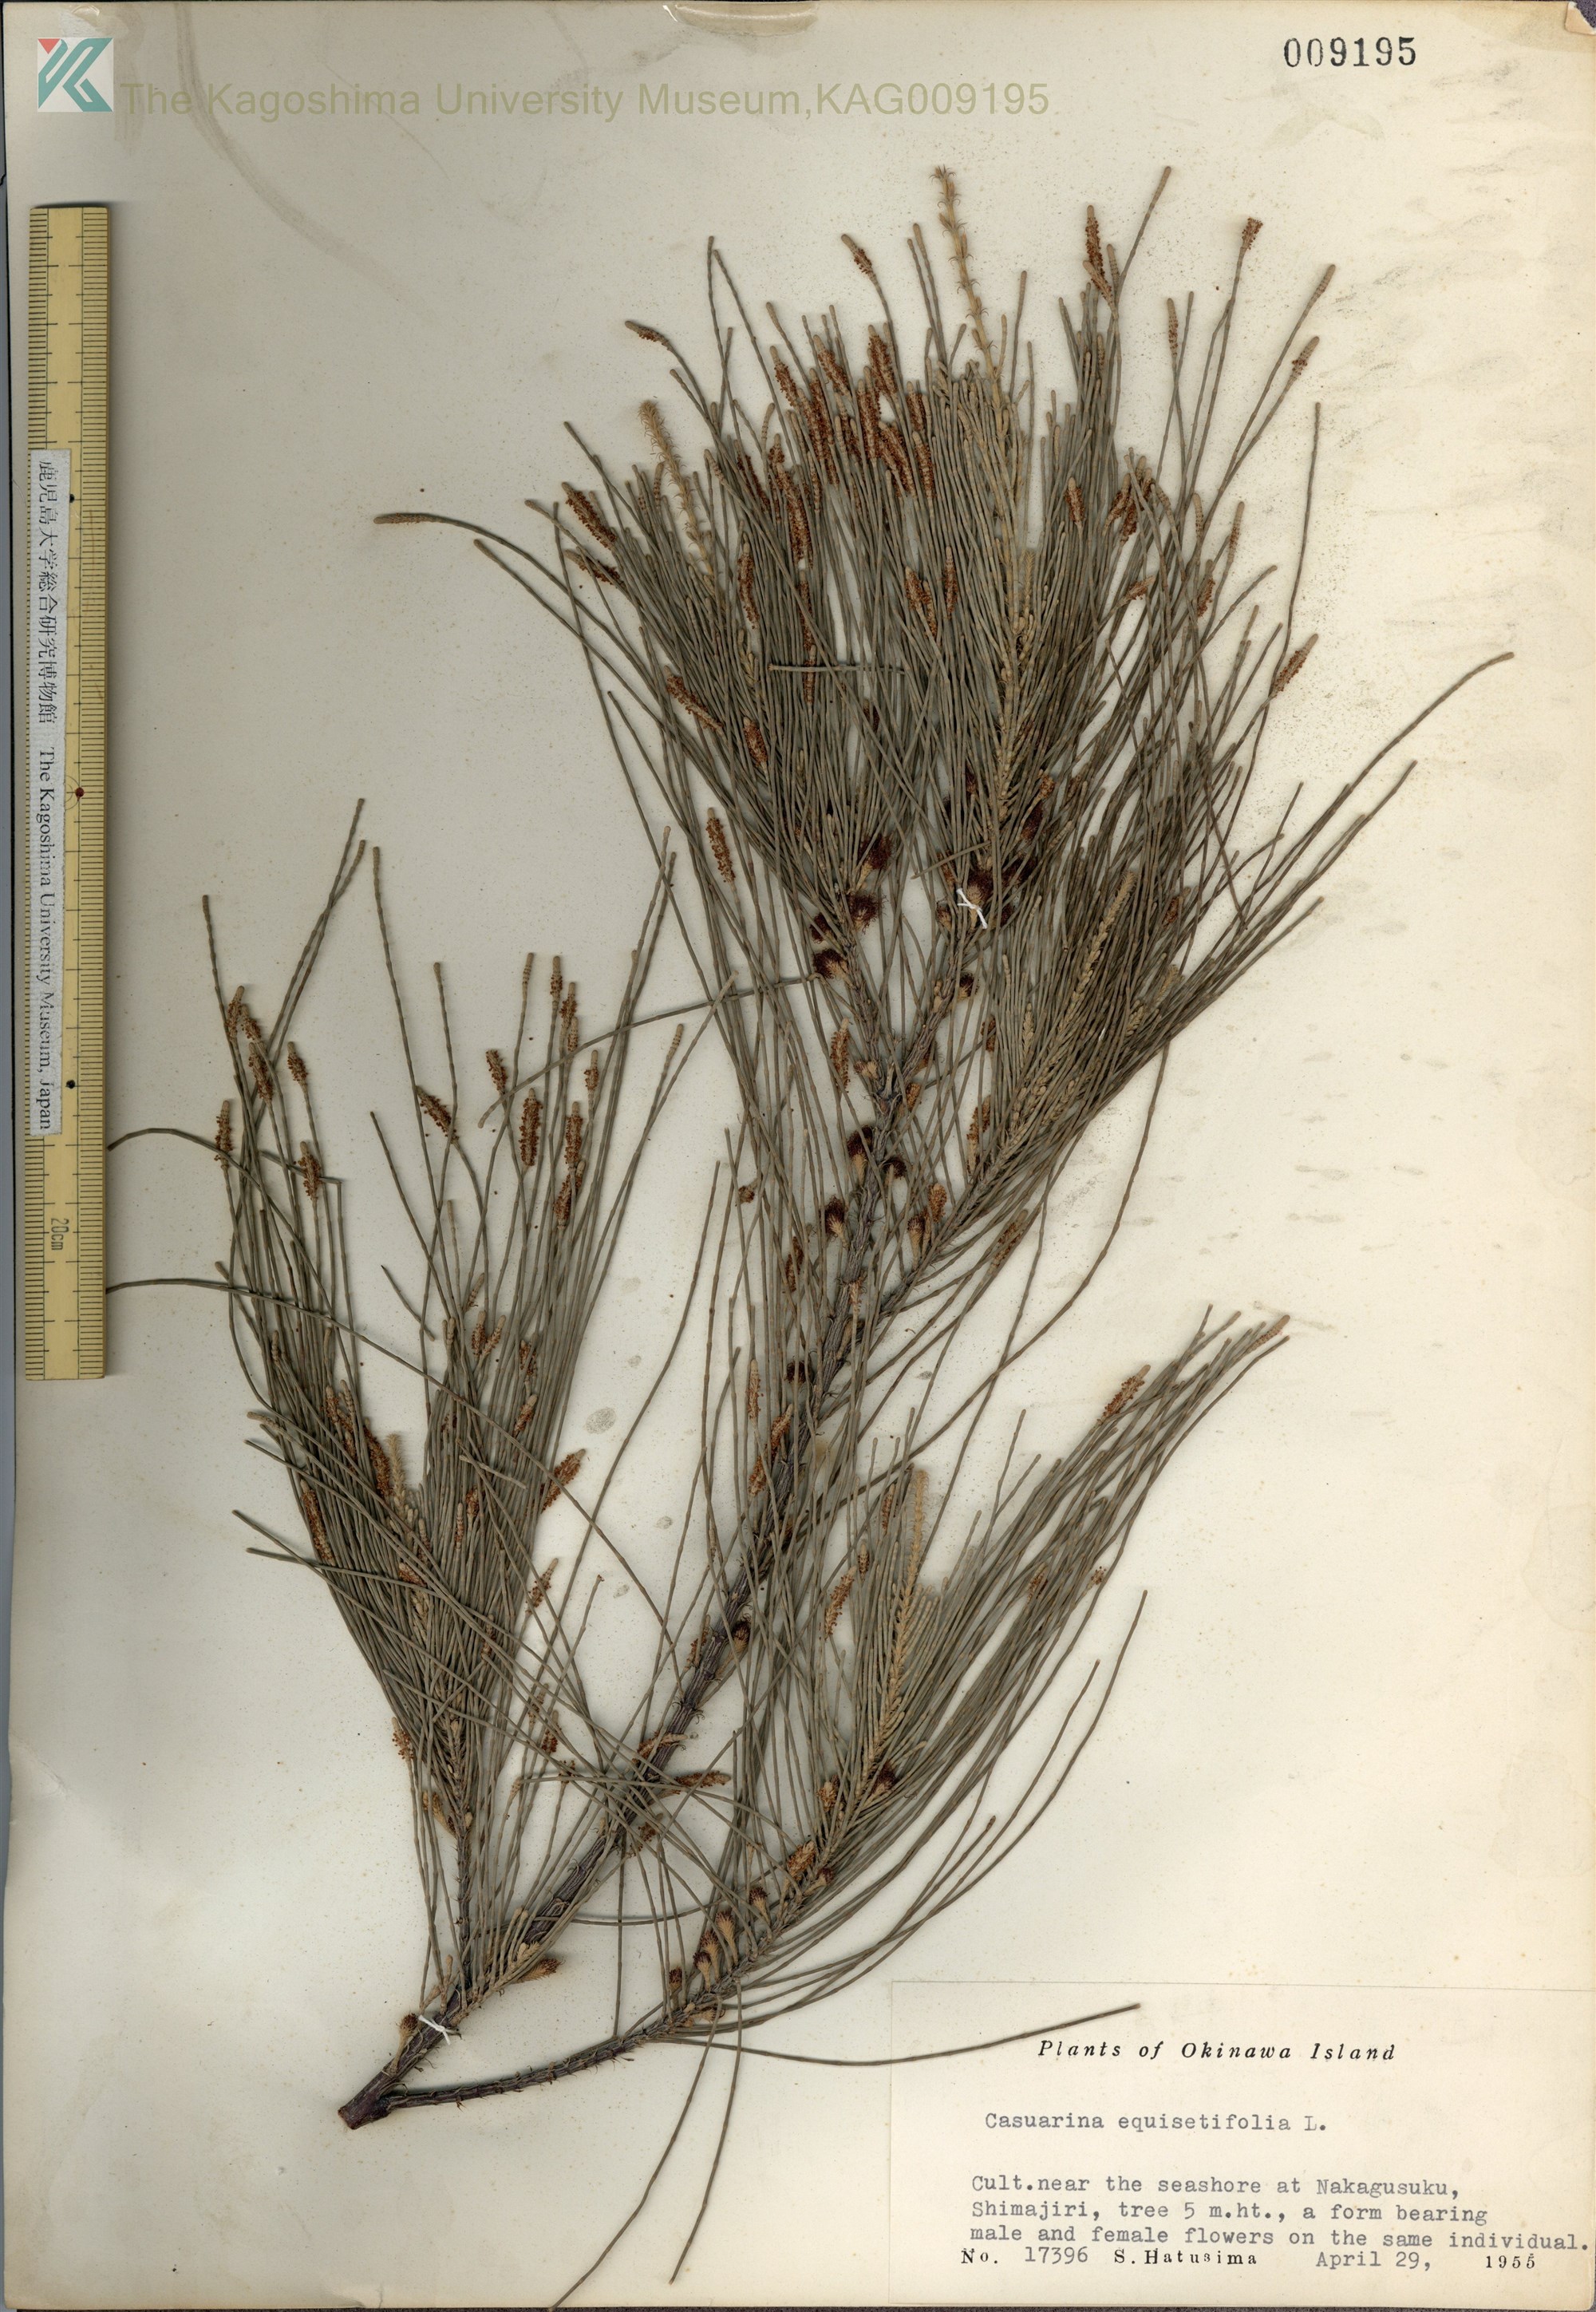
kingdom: Plantae
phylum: Tracheophyta
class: Magnoliopsida
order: Fagales
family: Casuarinaceae
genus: Casuarina
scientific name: Casuarina equisetifolia
